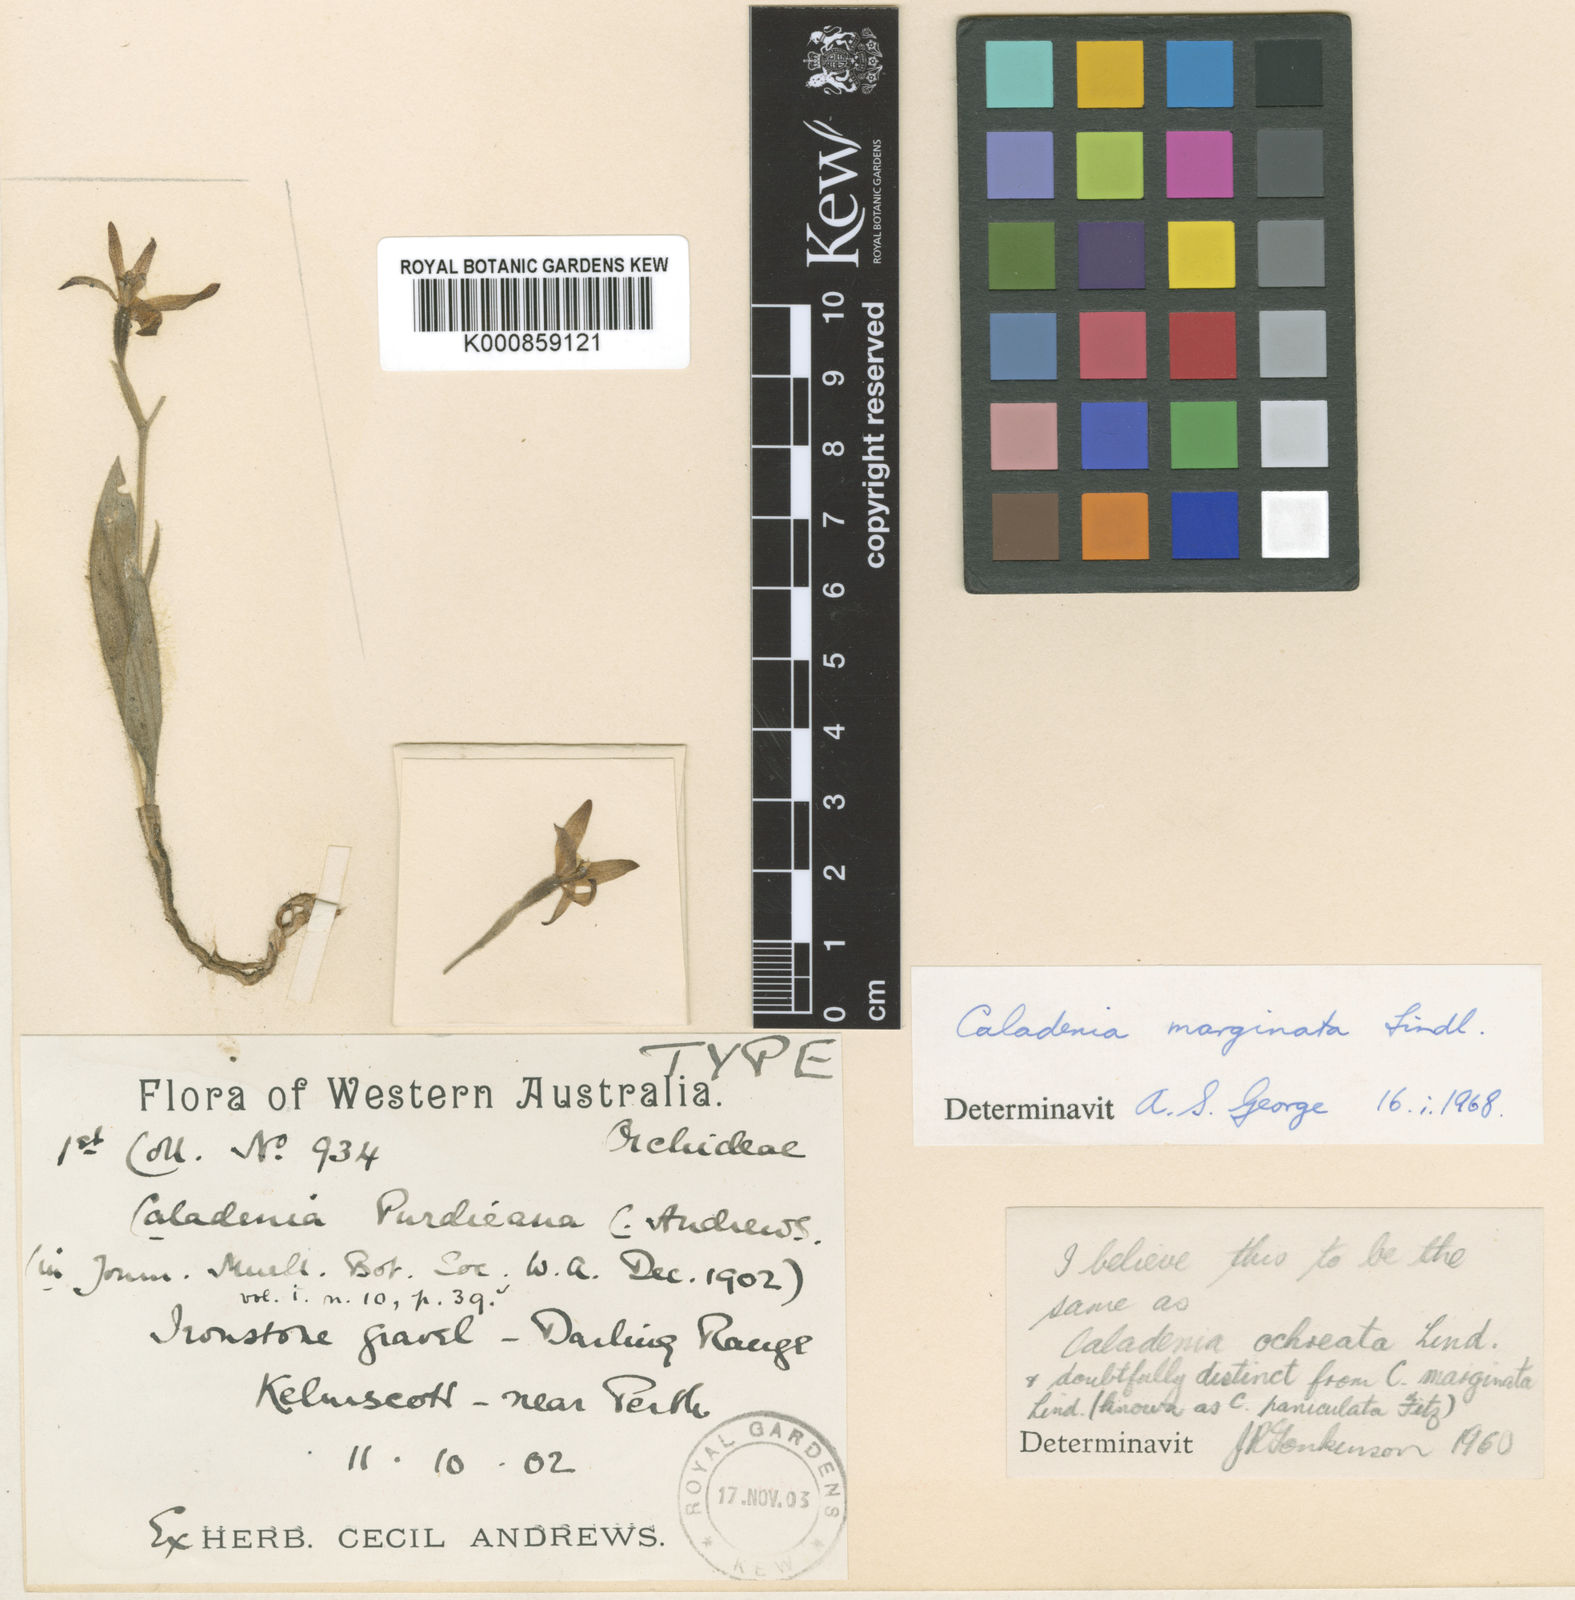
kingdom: Plantae
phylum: Tracheophyta
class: Liliopsida
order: Asparagales
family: Orchidaceae
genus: Caladenia
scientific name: Caladenia marginata
